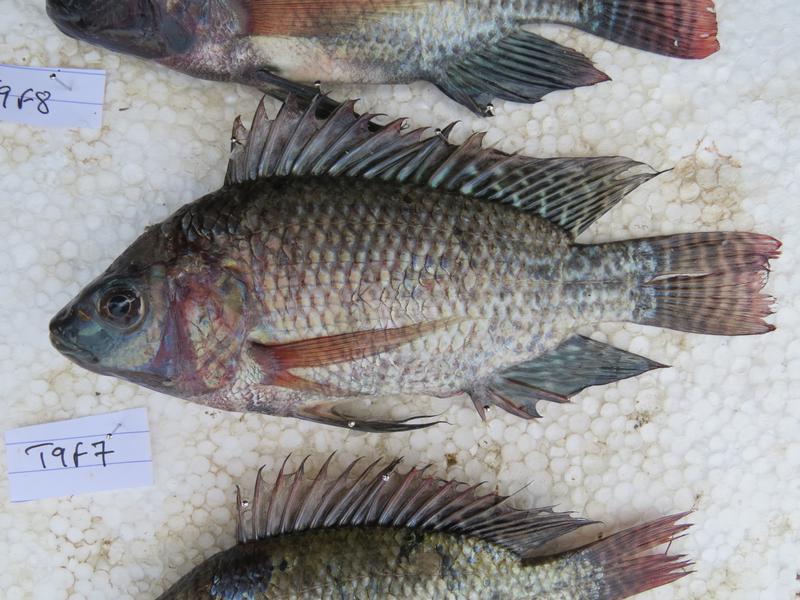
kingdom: Animalia
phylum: Chordata
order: Perciformes
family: Cichlidae
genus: Oreochromis
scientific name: Oreochromis niloticus
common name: Nile tilapia
